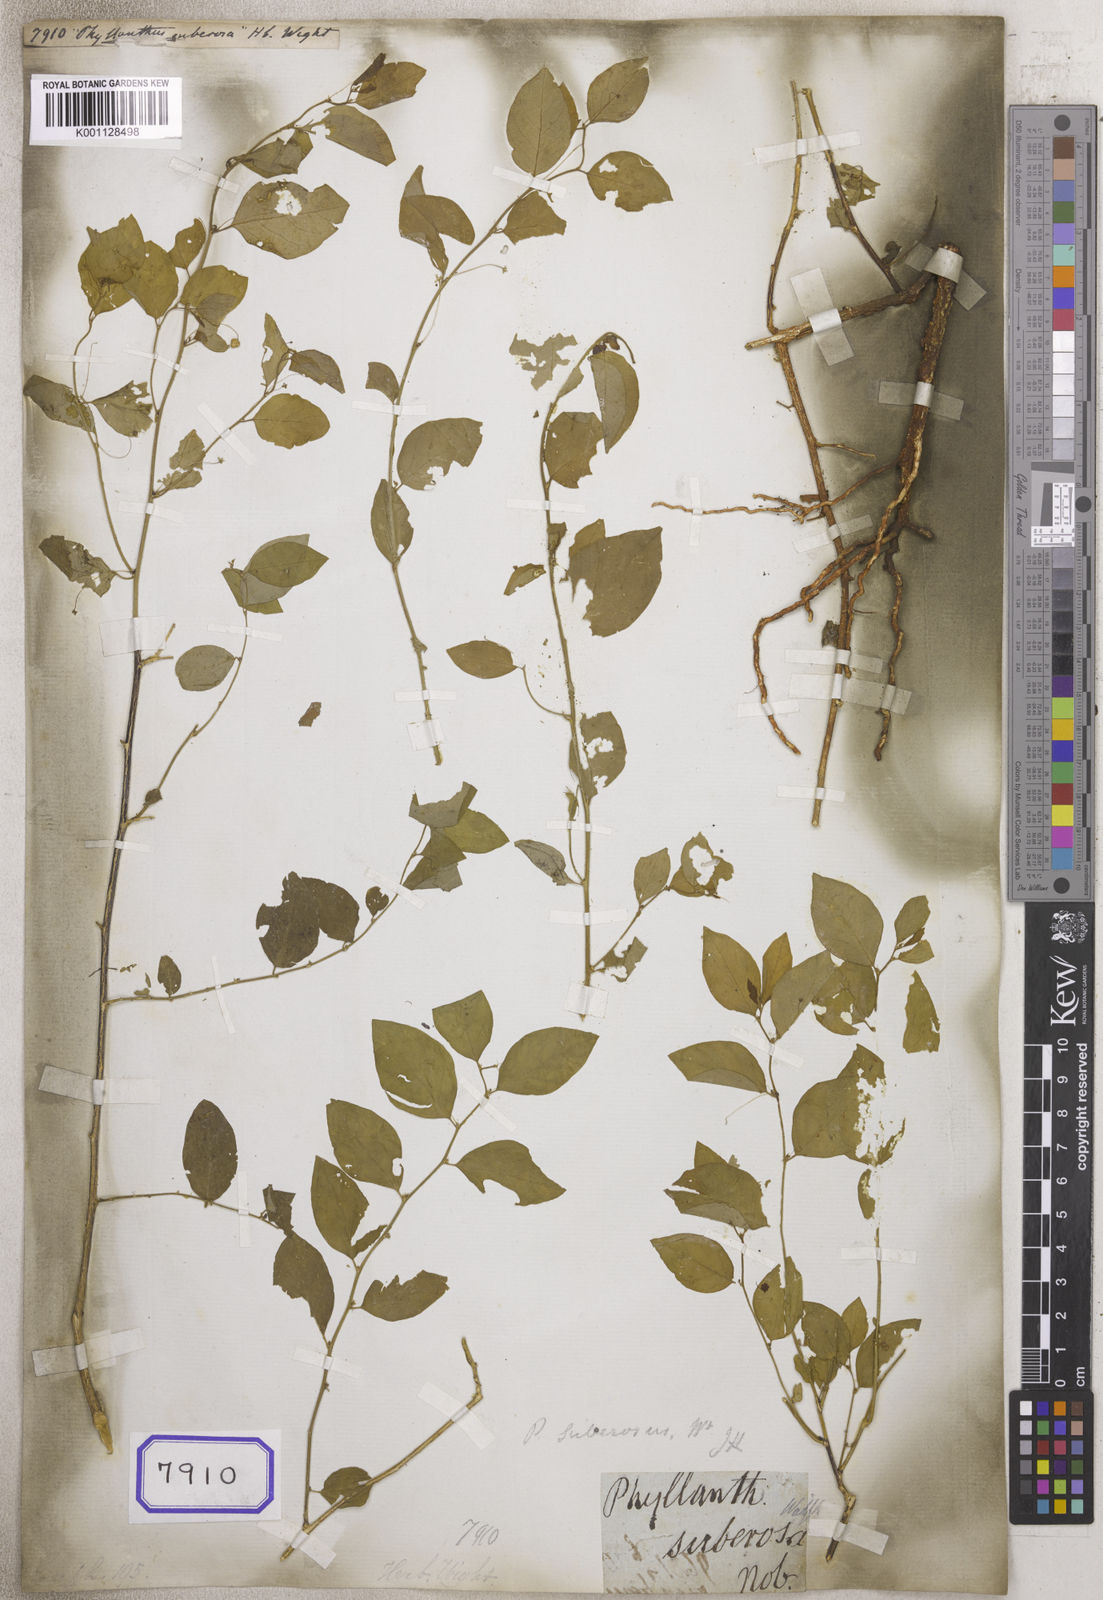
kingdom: Plantae
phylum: Tracheophyta
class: Magnoliopsida
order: Malpighiales
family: Euphorbiaceae
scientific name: Euphorbiaceae
